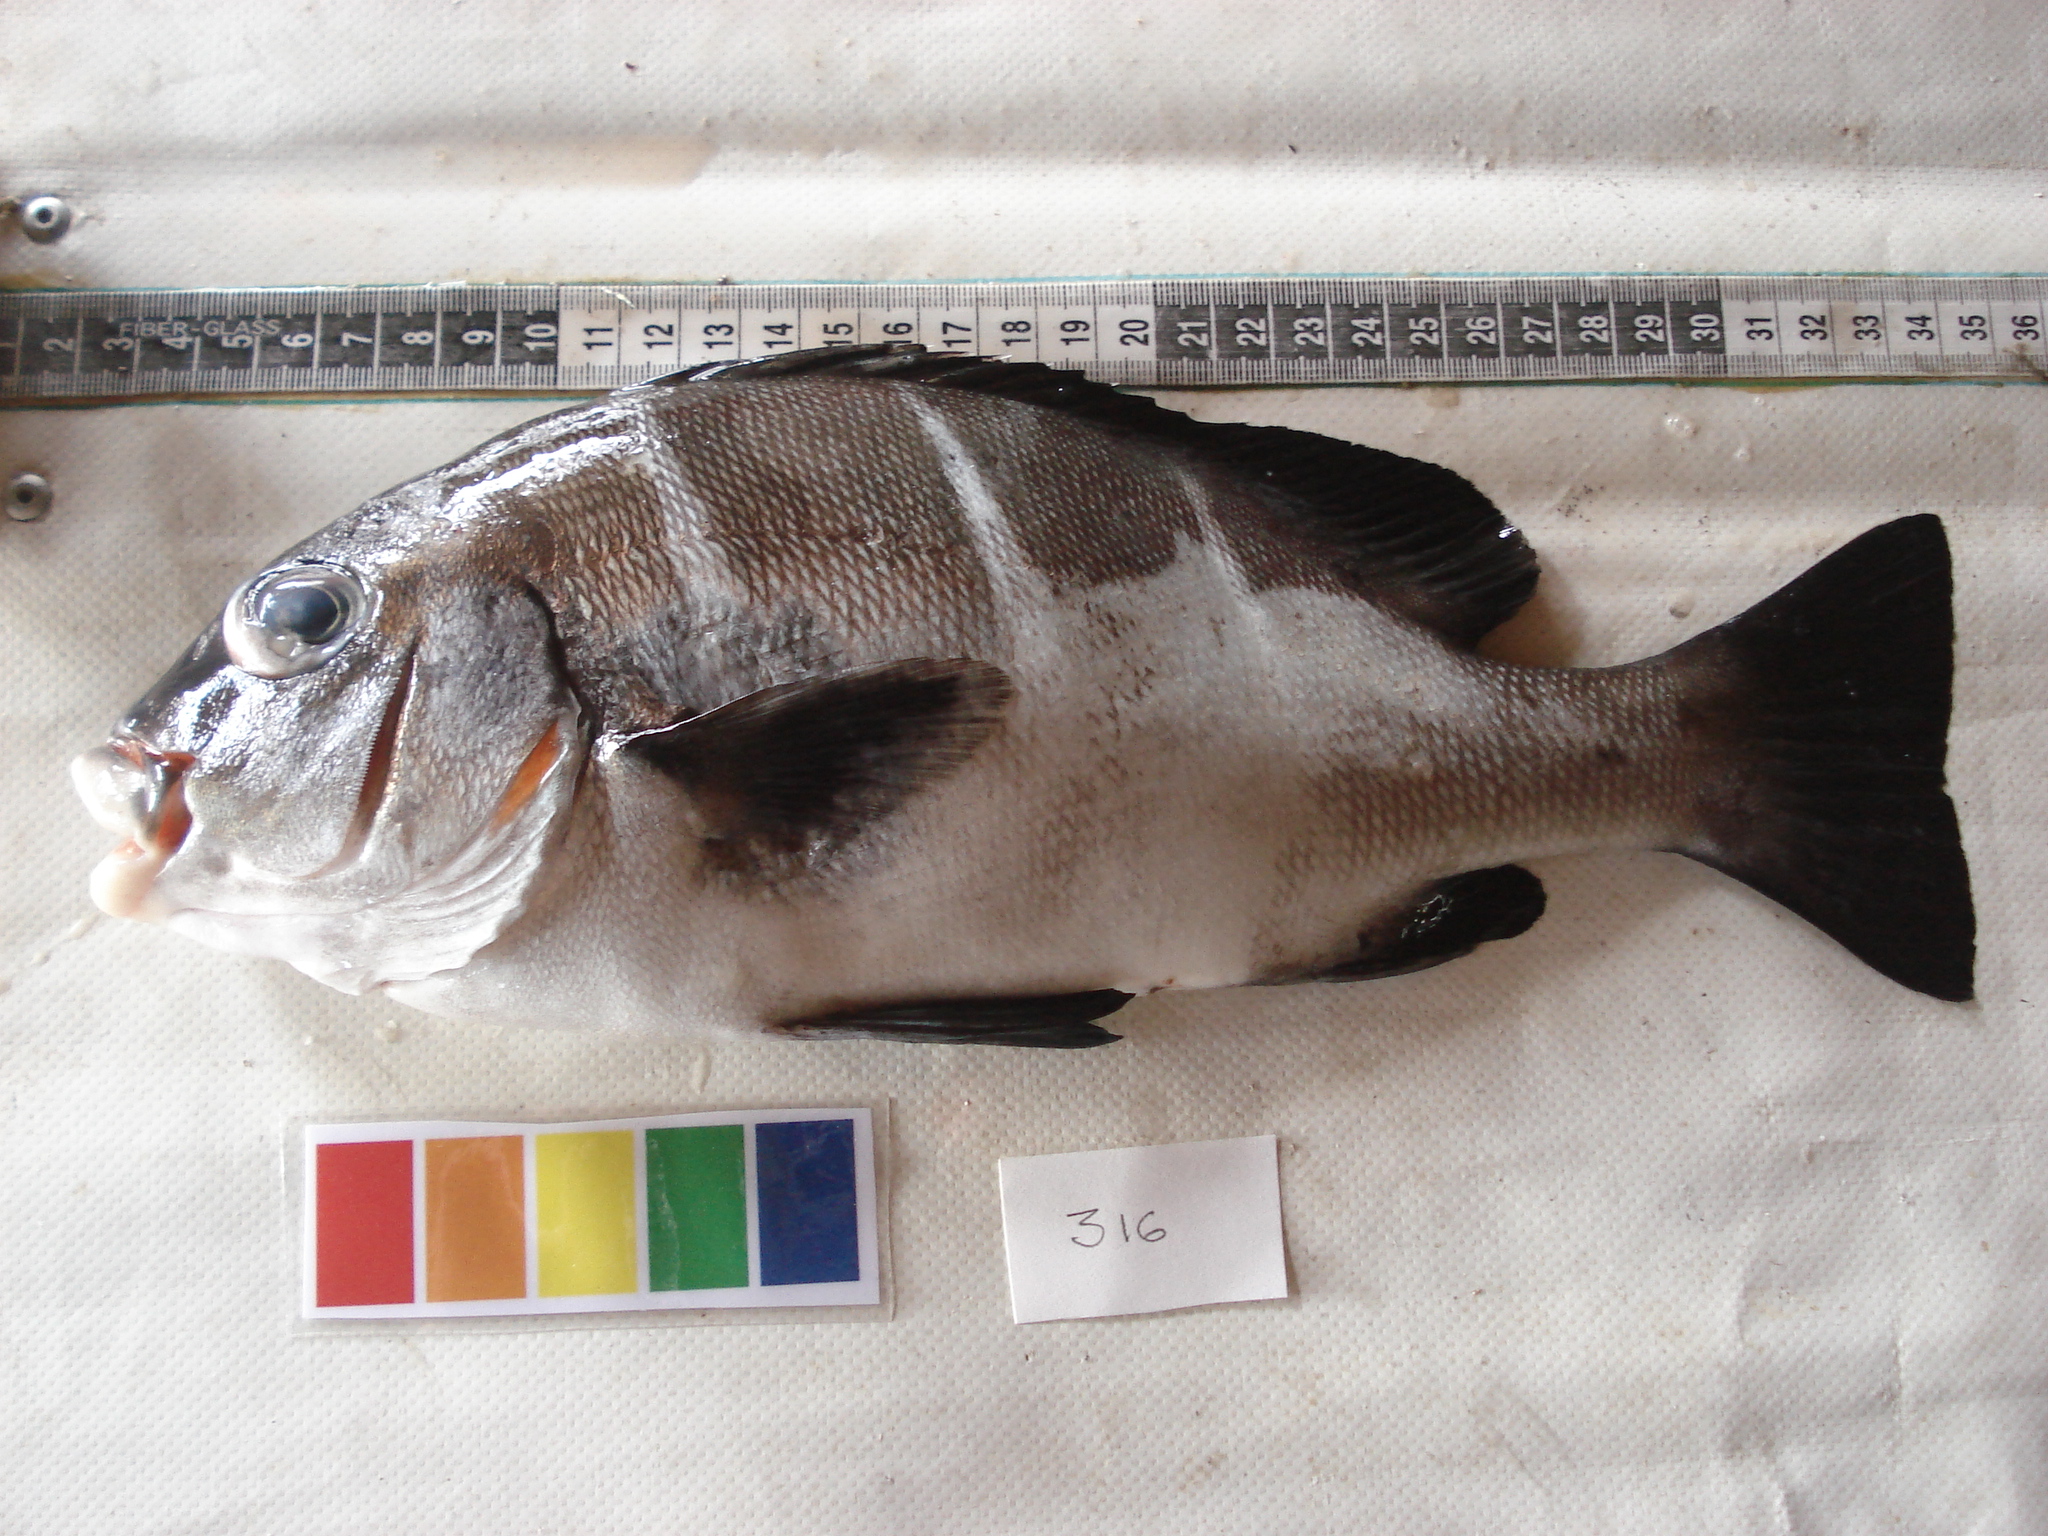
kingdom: Animalia
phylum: Chordata
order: Perciformes
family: Haemulidae
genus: Plectorhinchus
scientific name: Plectorhinchus playfairi
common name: Whitebarred rubberlip
